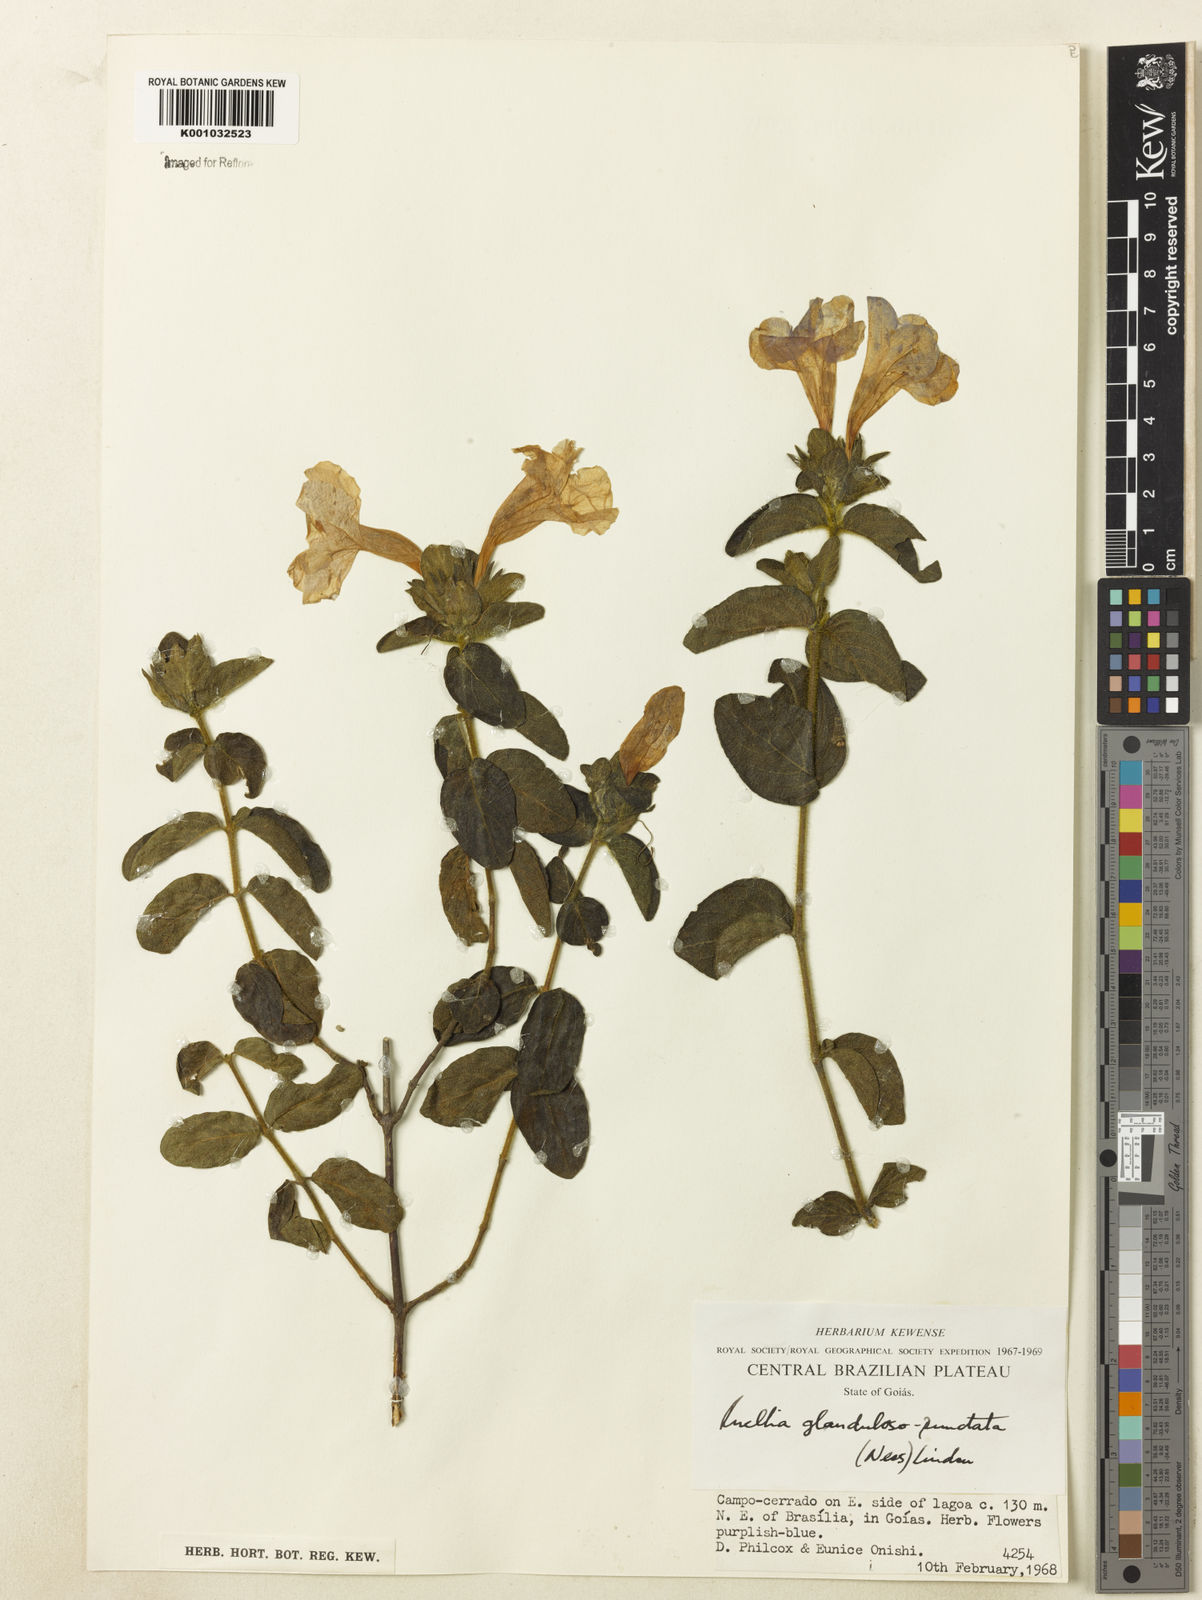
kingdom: Plantae
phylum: Tracheophyta
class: Magnoliopsida
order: Lamiales
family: Acanthaceae
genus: Ruellia
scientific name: Ruellia multifolia
